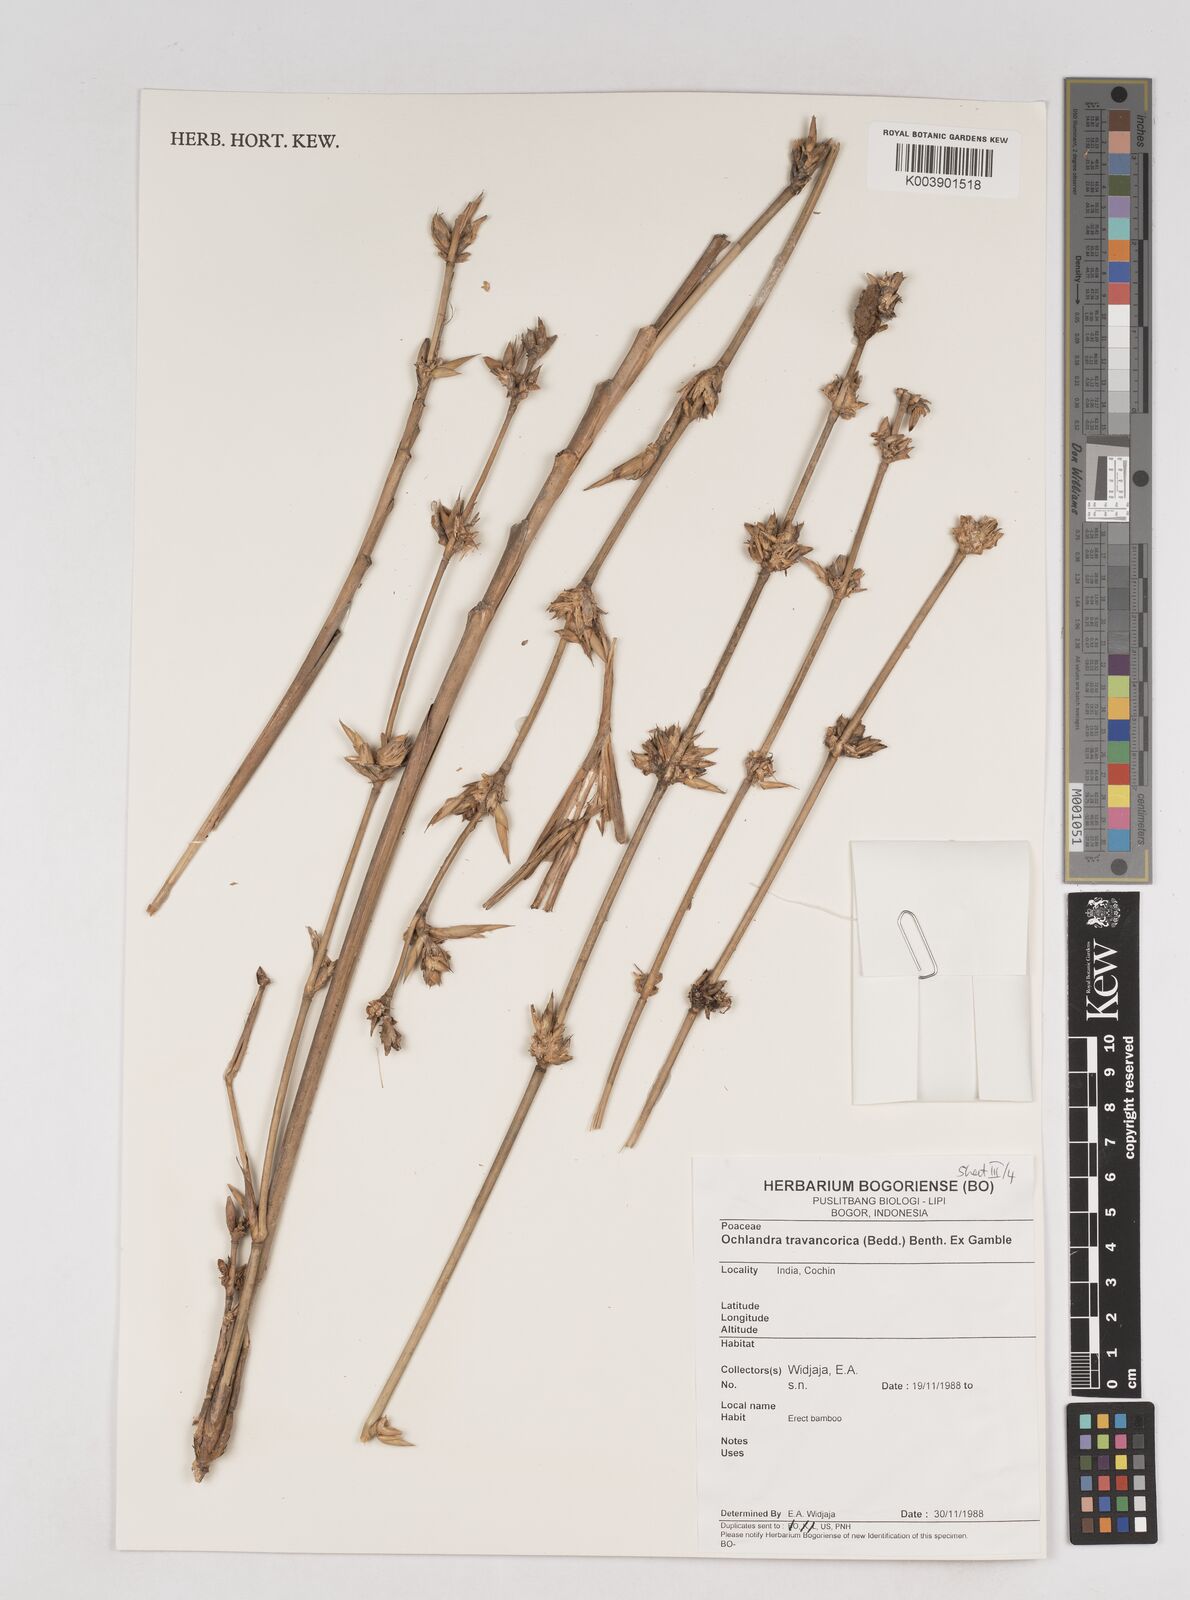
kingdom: Plantae
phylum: Tracheophyta
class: Liliopsida
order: Poales
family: Poaceae
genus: Ochlandra
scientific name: Ochlandra travancorica
